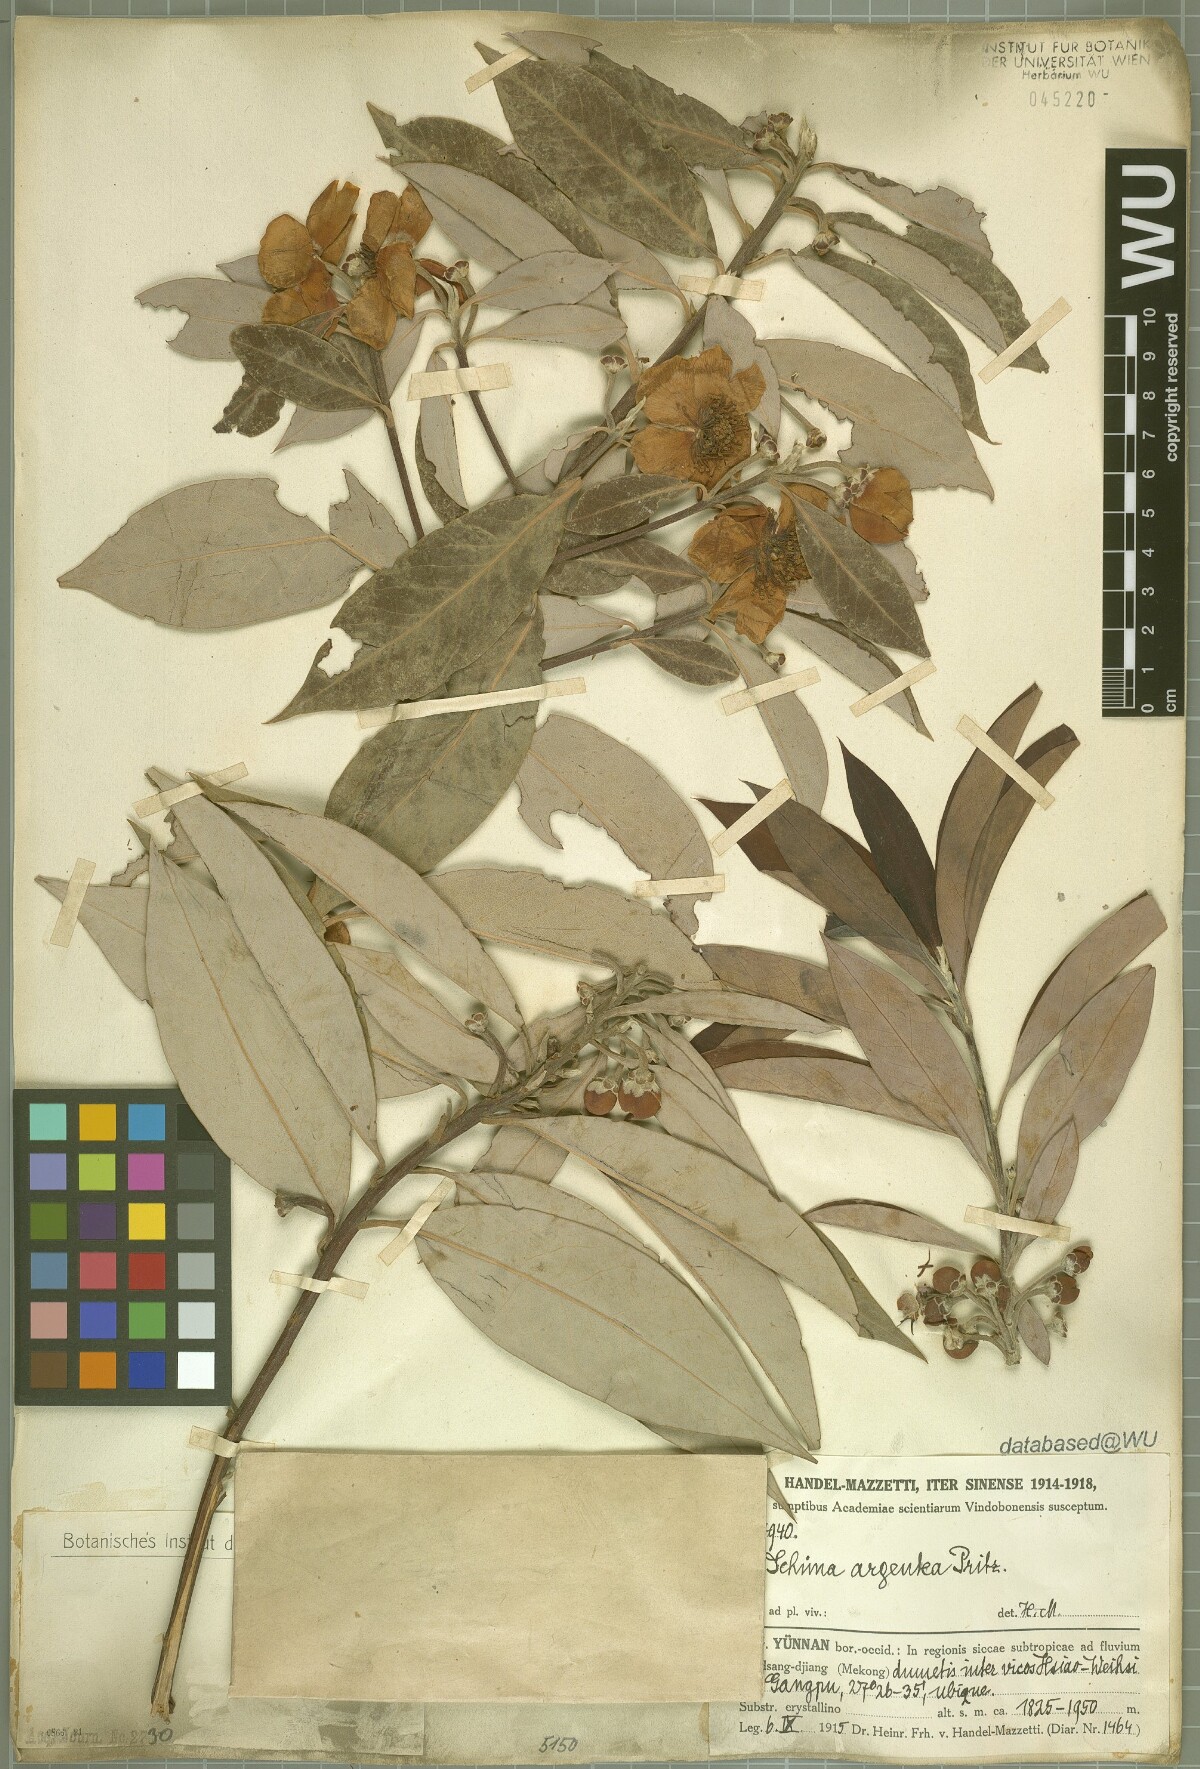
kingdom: Plantae
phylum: Tracheophyta
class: Magnoliopsida
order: Ericales
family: Theaceae
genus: Schima
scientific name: Schima argentea
